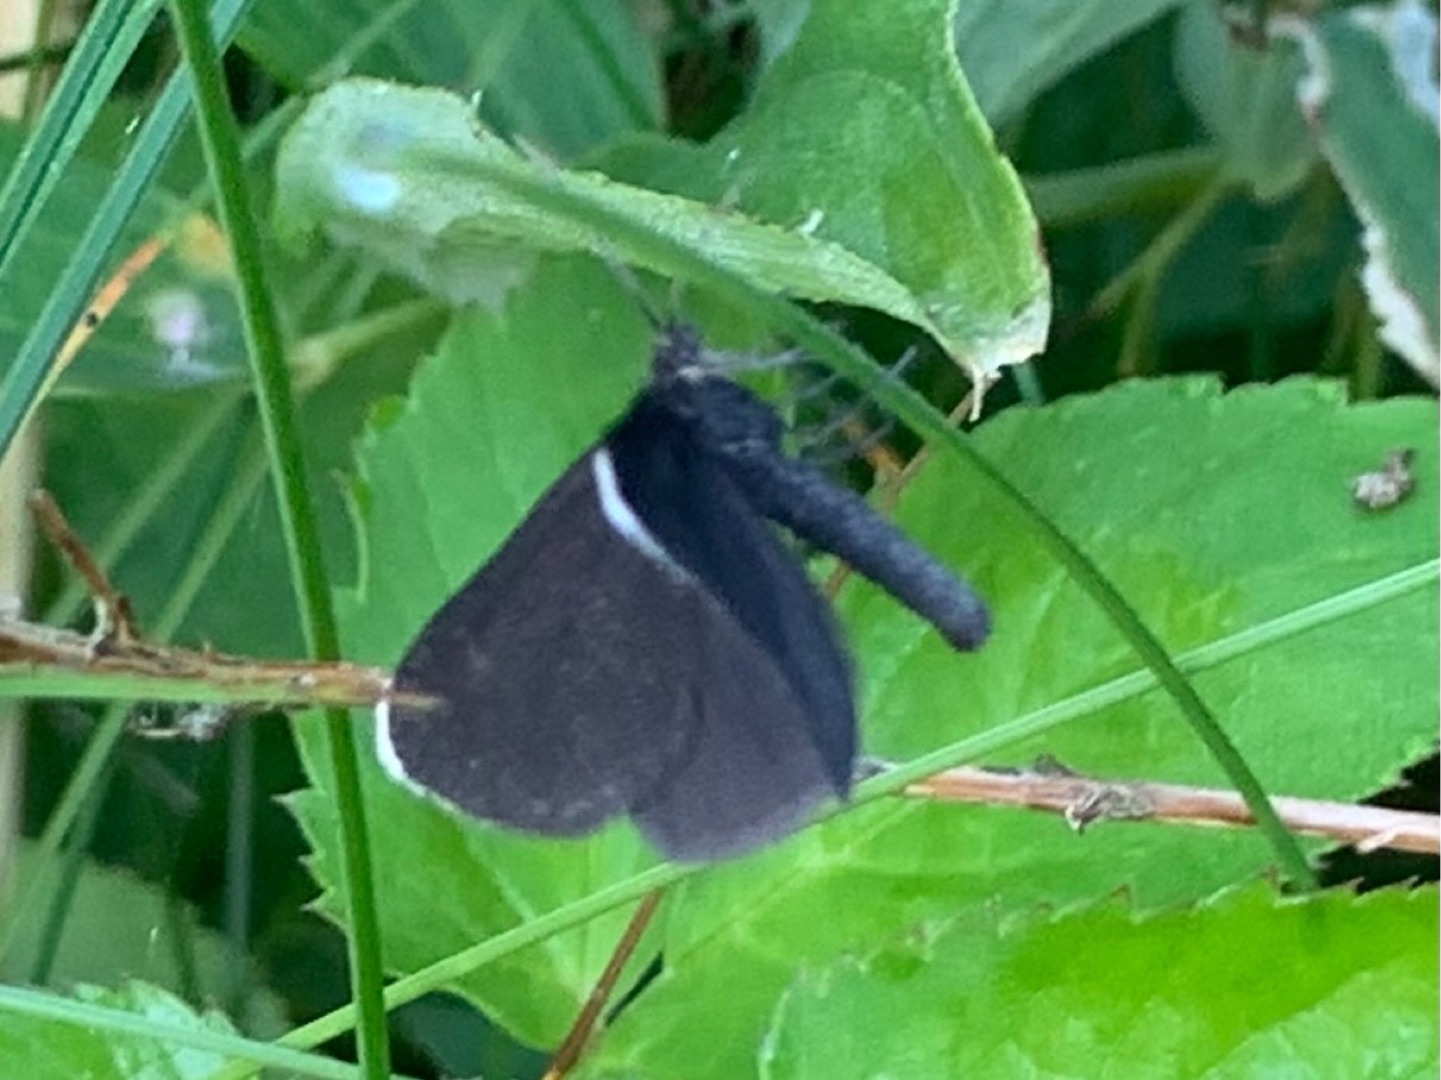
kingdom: Animalia
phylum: Arthropoda
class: Insecta
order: Lepidoptera
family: Geometridae
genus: Odezia
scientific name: Odezia atrata
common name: Sort måler
